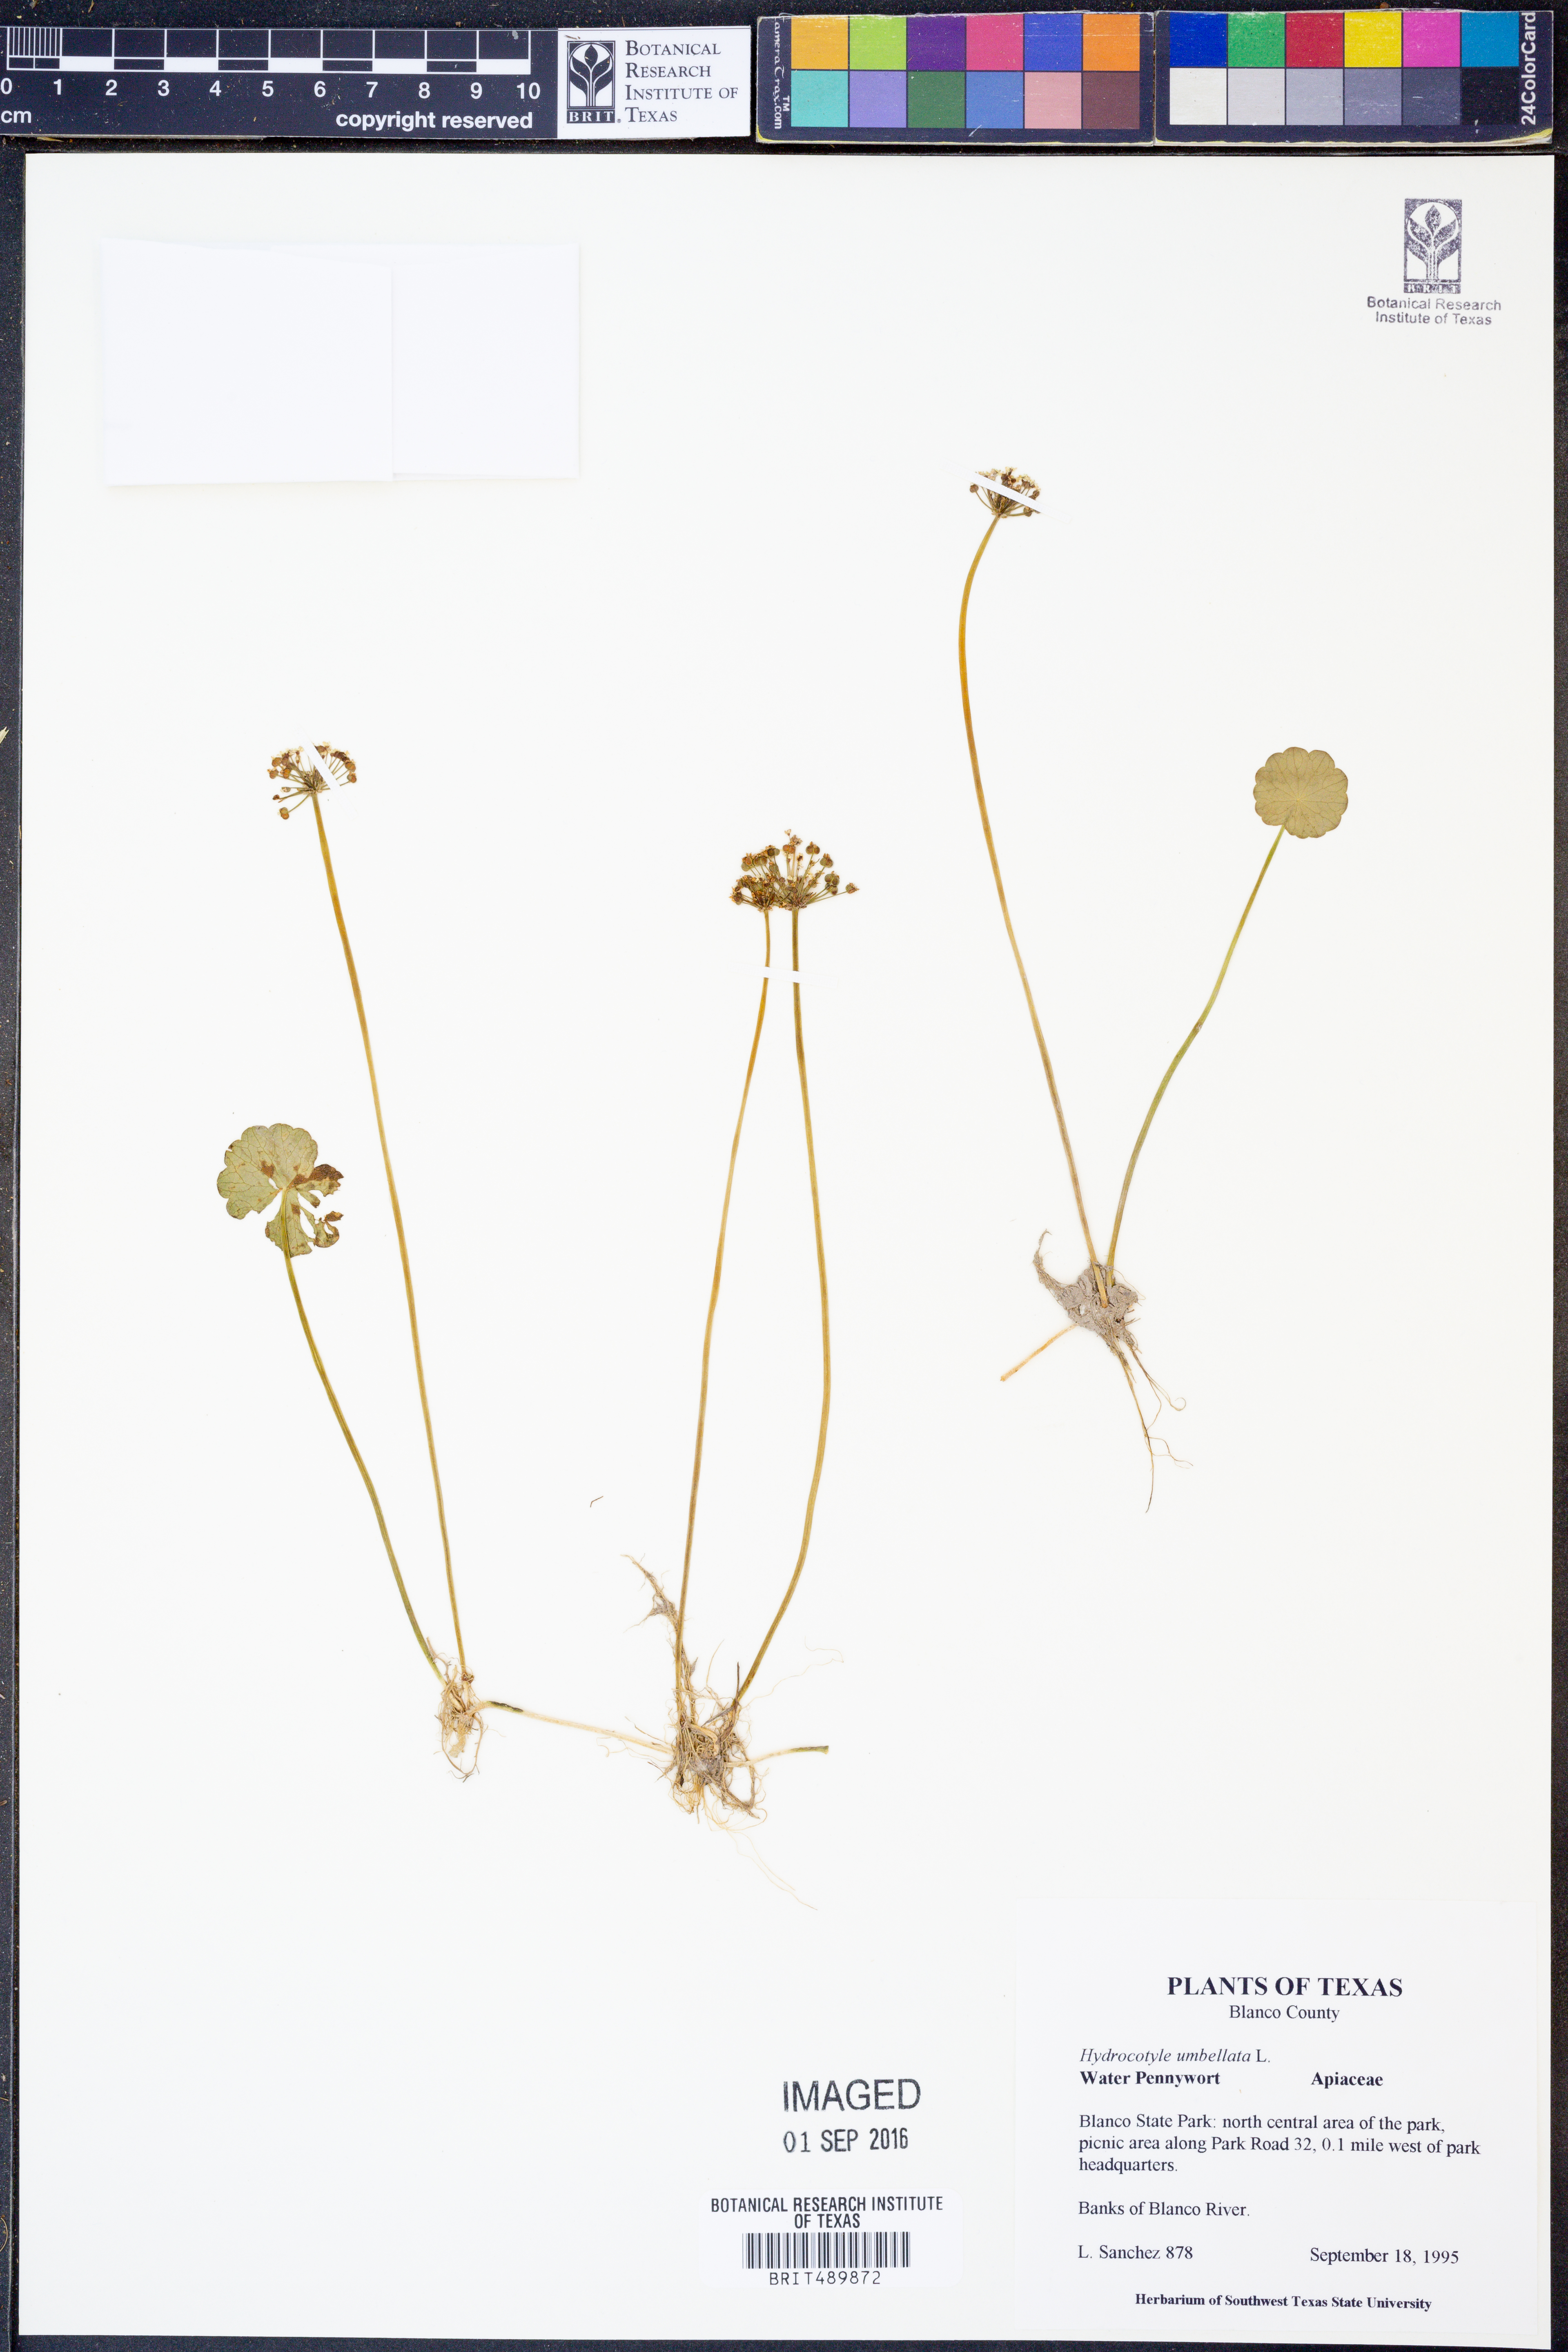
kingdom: Plantae
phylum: Tracheophyta
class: Magnoliopsida
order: Apiales
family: Araliaceae
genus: Hydrocotyle
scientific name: Hydrocotyle umbellata
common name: Water pennywort
